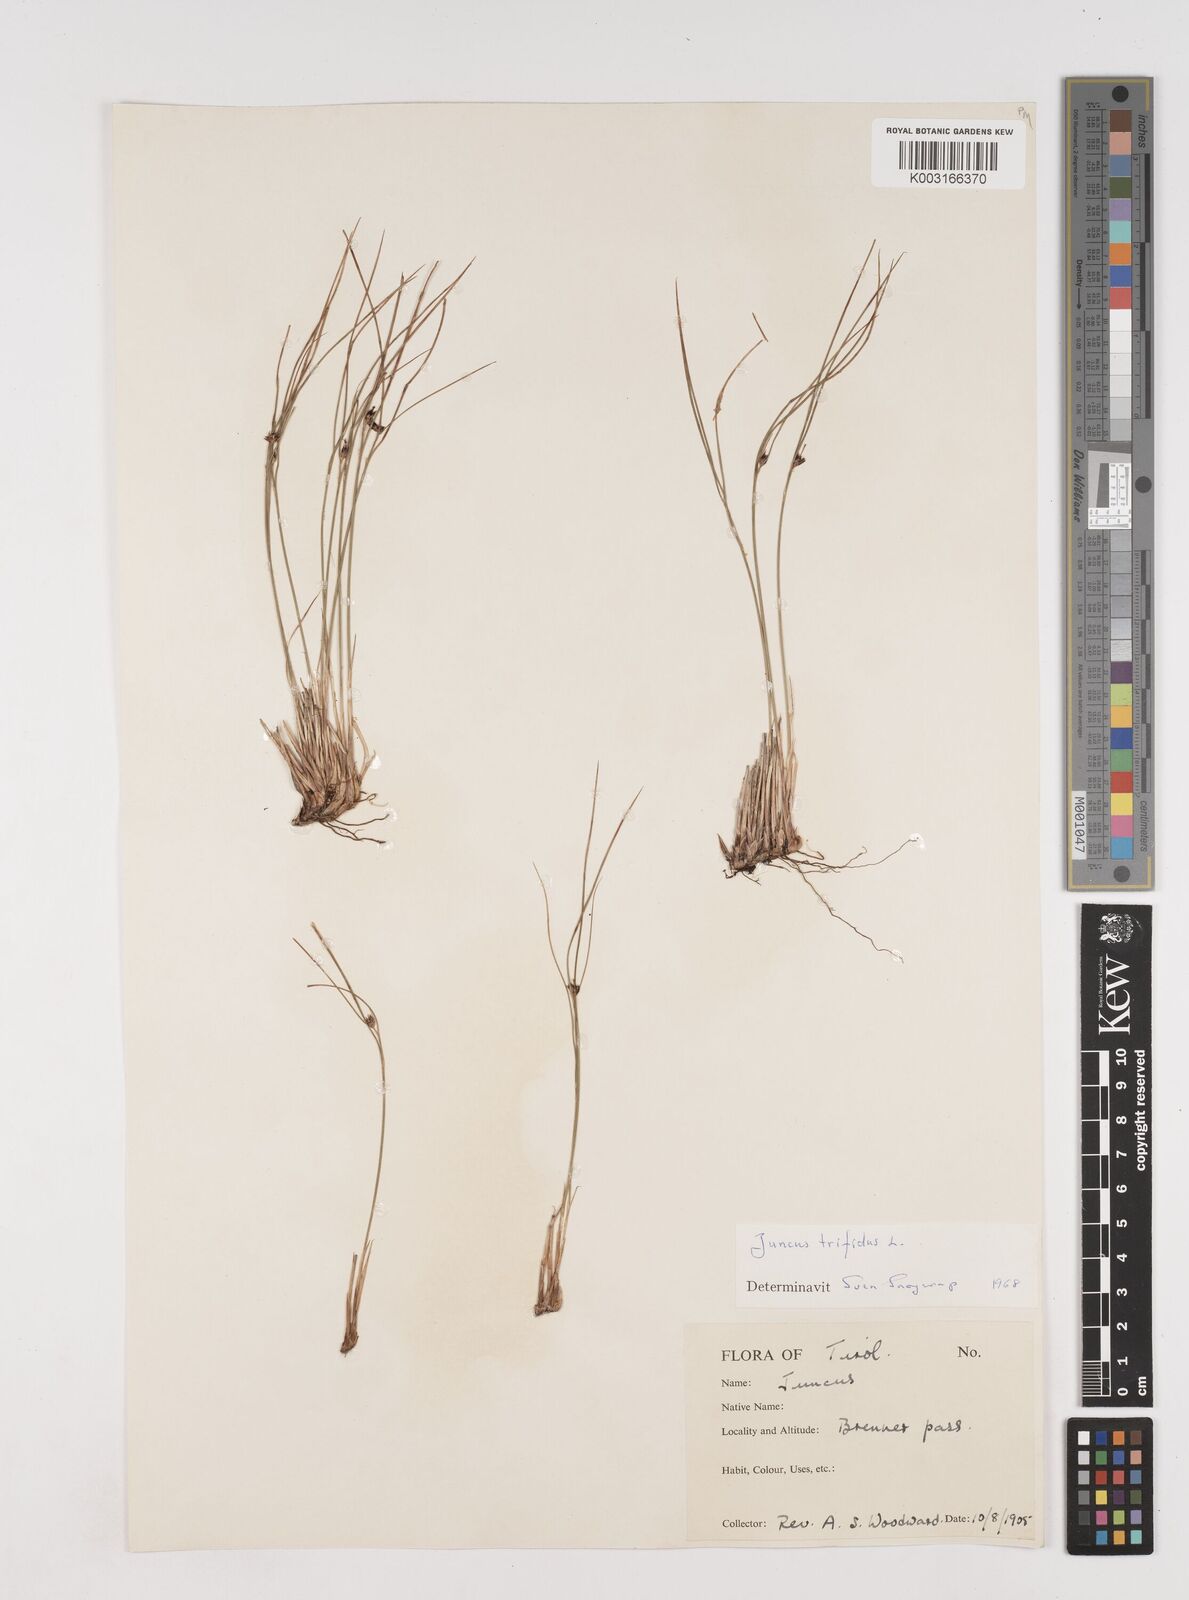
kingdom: Plantae
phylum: Tracheophyta
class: Liliopsida
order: Poales
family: Juncaceae
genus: Oreojuncus
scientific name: Oreojuncus trifidus
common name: Highland rush
